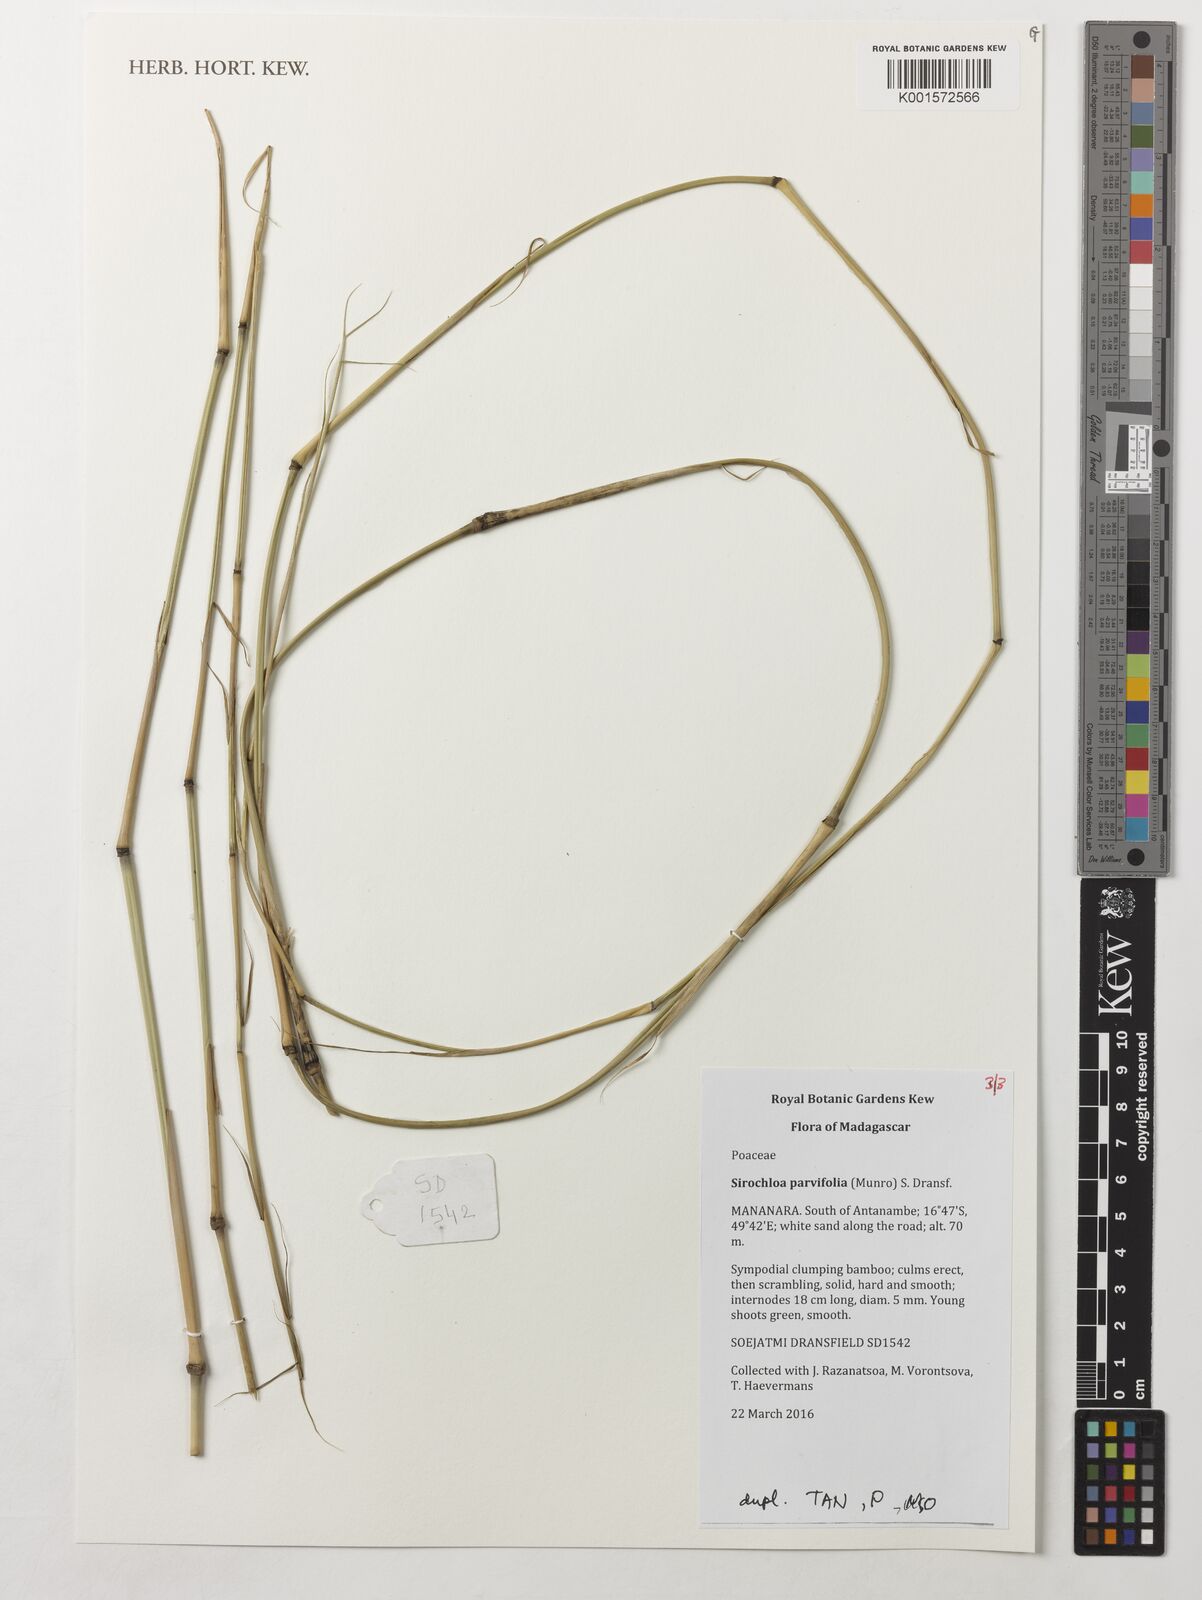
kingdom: Plantae
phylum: Tracheophyta
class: Liliopsida
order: Poales
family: Poaceae
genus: Sirochloa
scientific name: Sirochloa parvifolia
